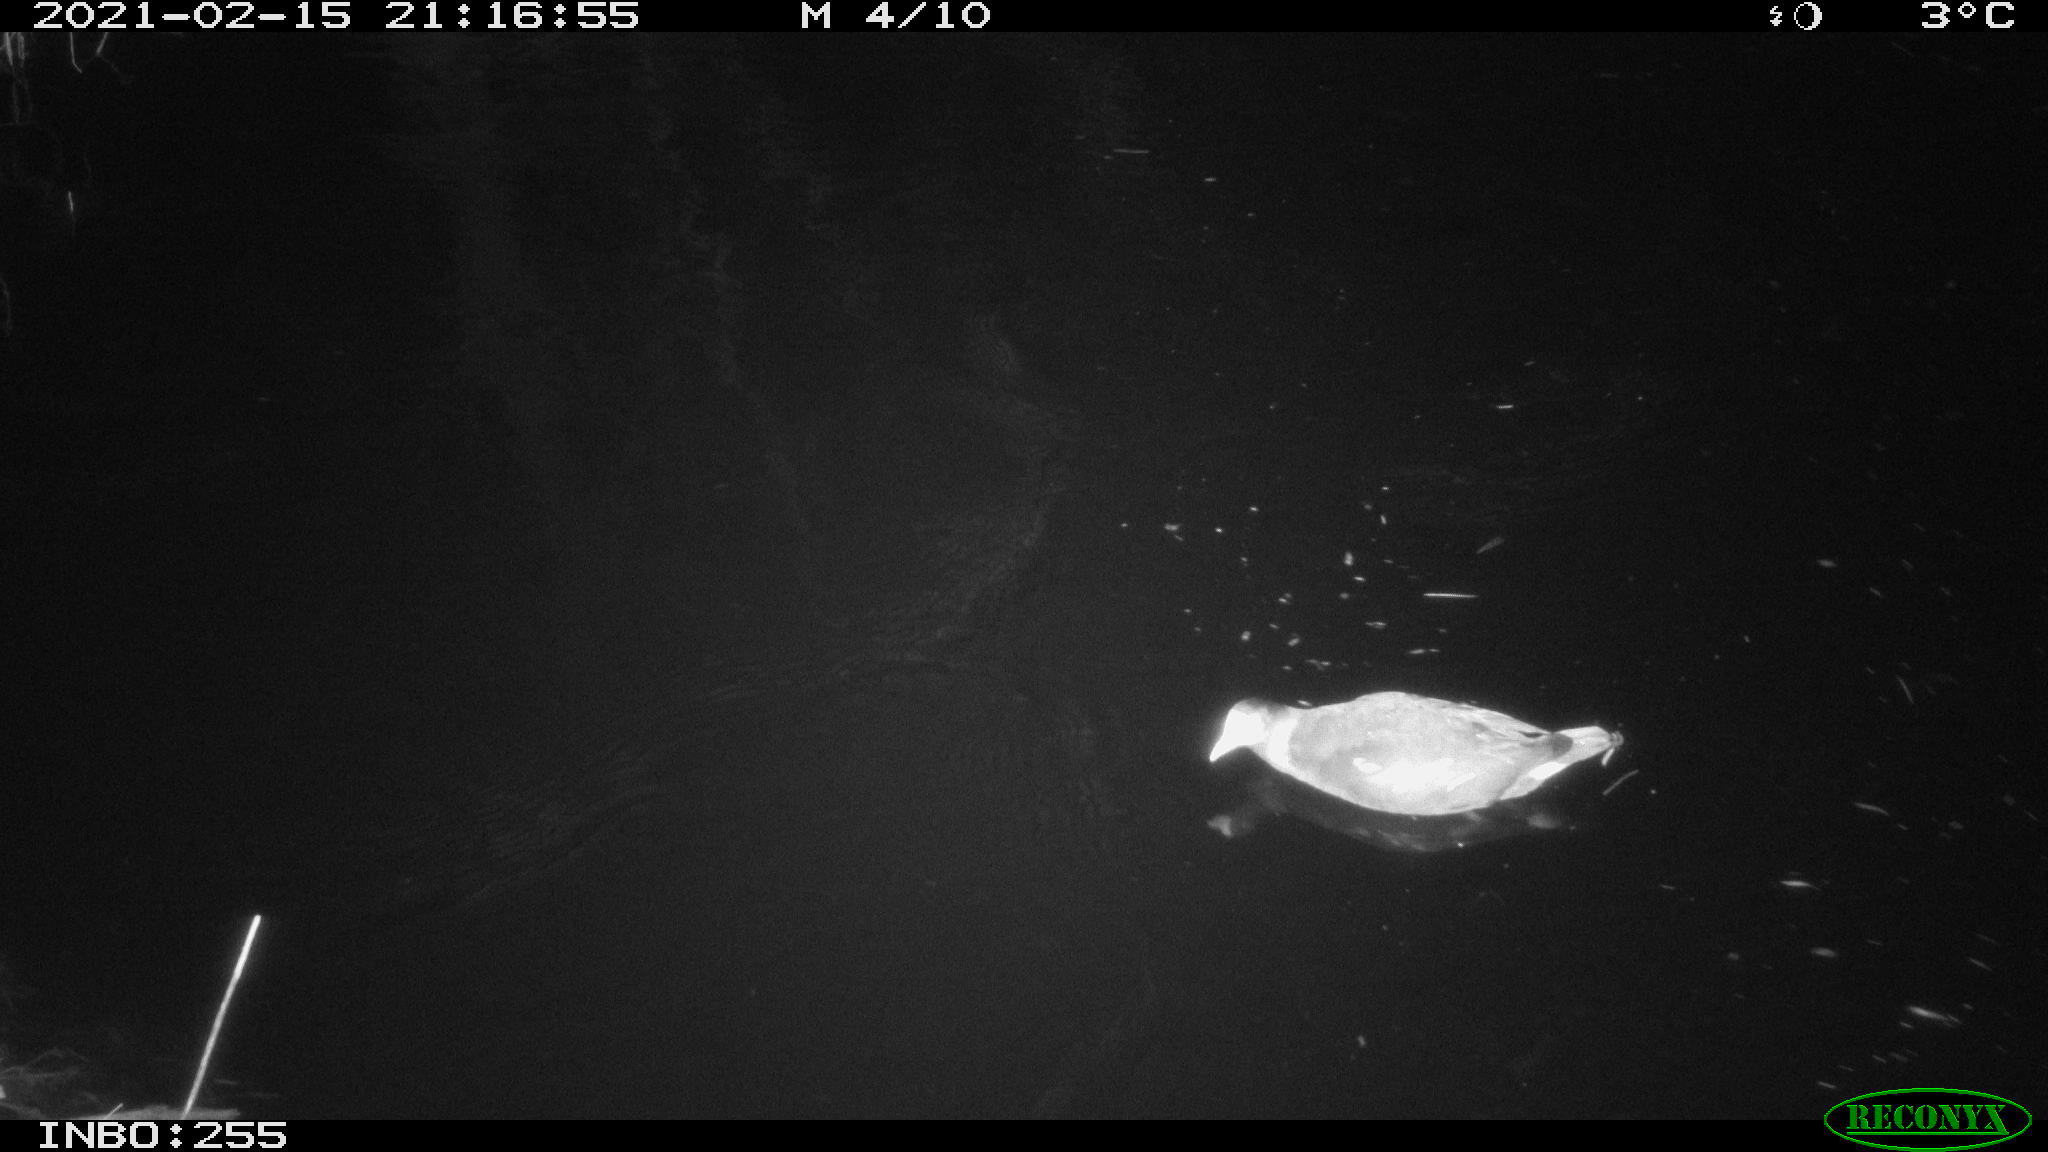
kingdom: Animalia
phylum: Chordata
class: Aves
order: Gruiformes
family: Rallidae
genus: Gallinula
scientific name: Gallinula chloropus
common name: Common moorhen
